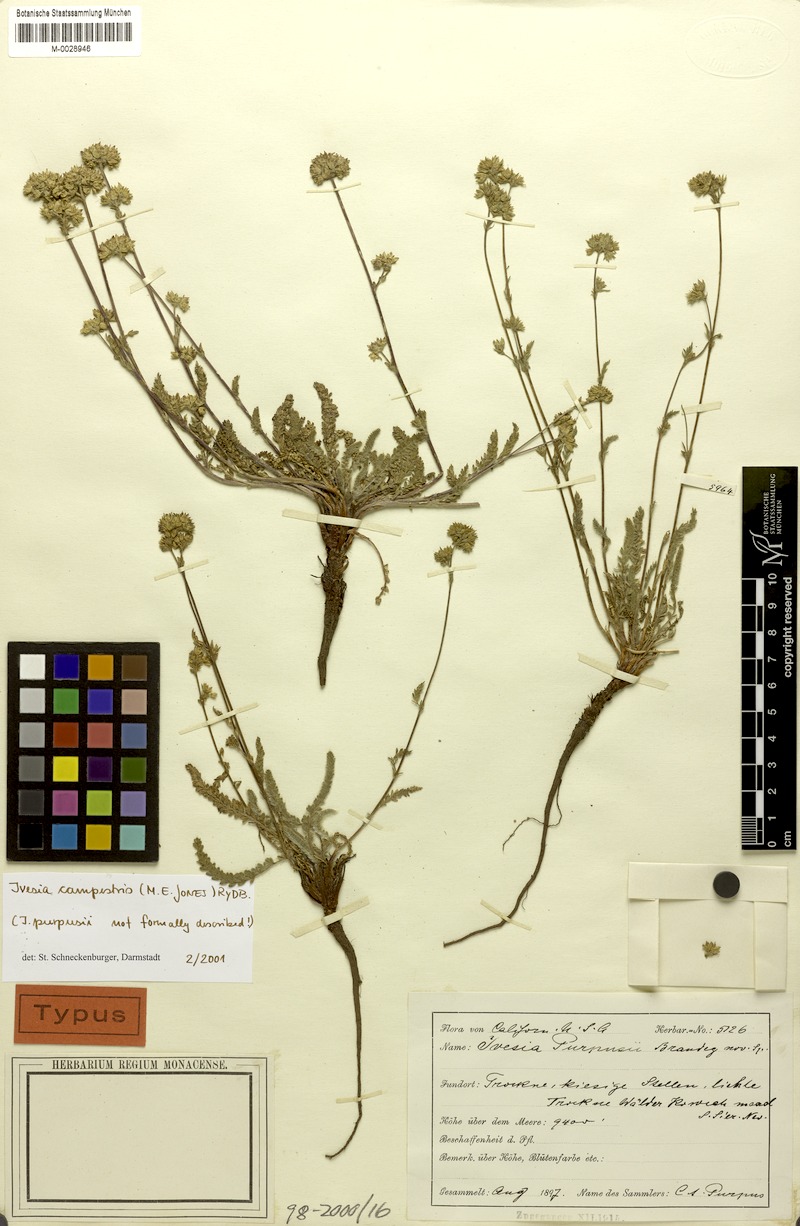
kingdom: Plantae
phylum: Tracheophyta
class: Magnoliopsida
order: Rosales
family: Rosaceae
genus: Potentilla
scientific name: Potentilla campestris
